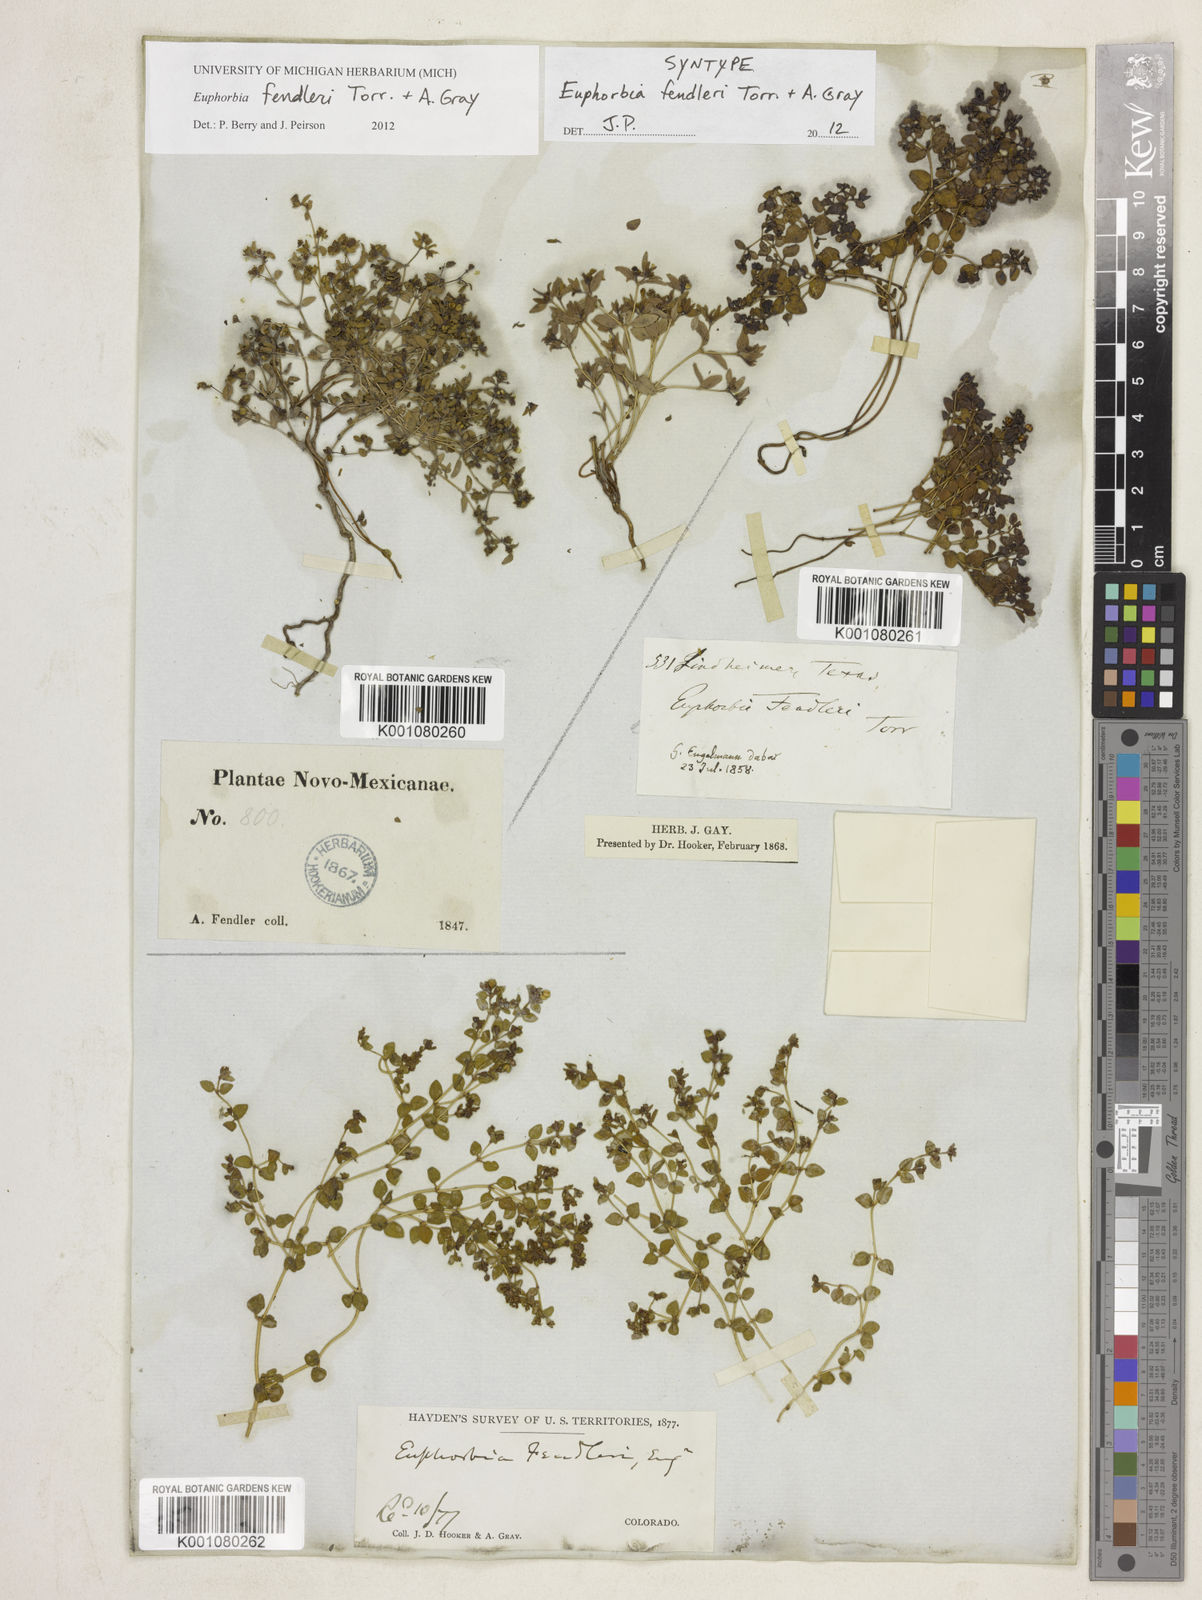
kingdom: Plantae
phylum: Tracheophyta
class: Magnoliopsida
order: Malpighiales
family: Euphorbiaceae
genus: Euphorbia
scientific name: Euphorbia fendleri
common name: Fendler's euphorbia
